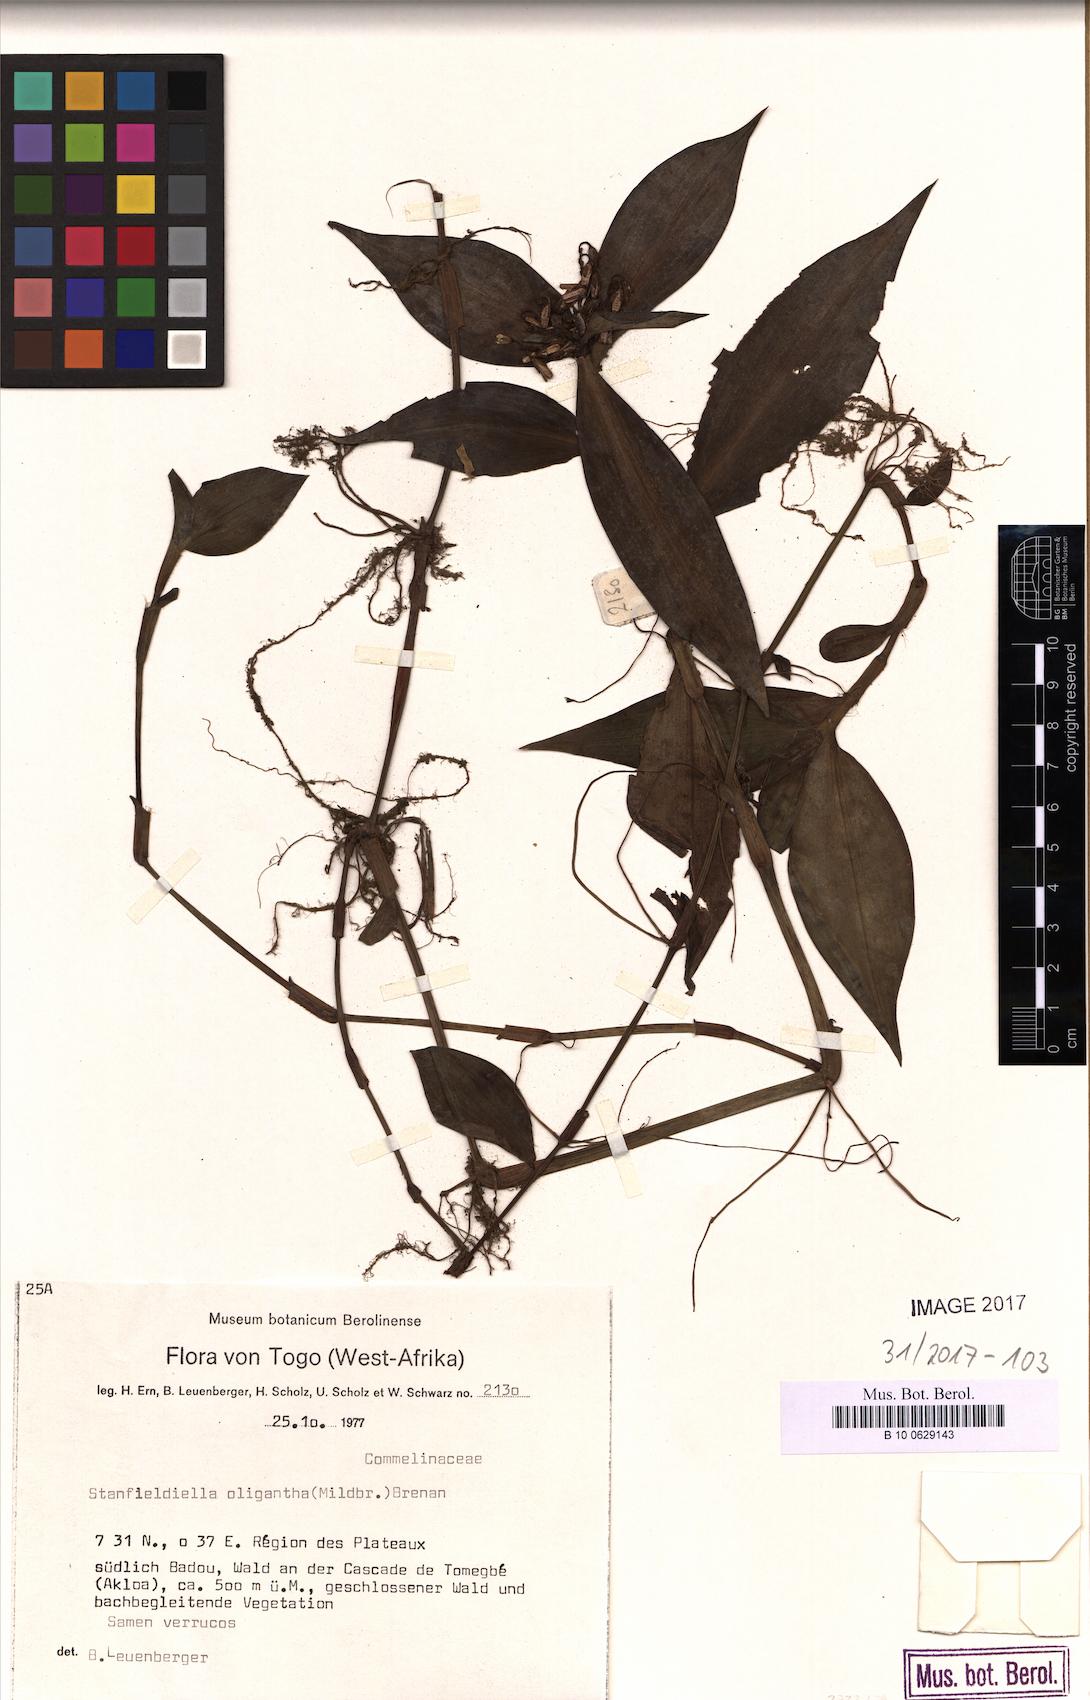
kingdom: Plantae
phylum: Tracheophyta
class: Liliopsida
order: Commelinales
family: Commelinaceae
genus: Stanfieldiella
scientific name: Stanfieldiella oligantha
